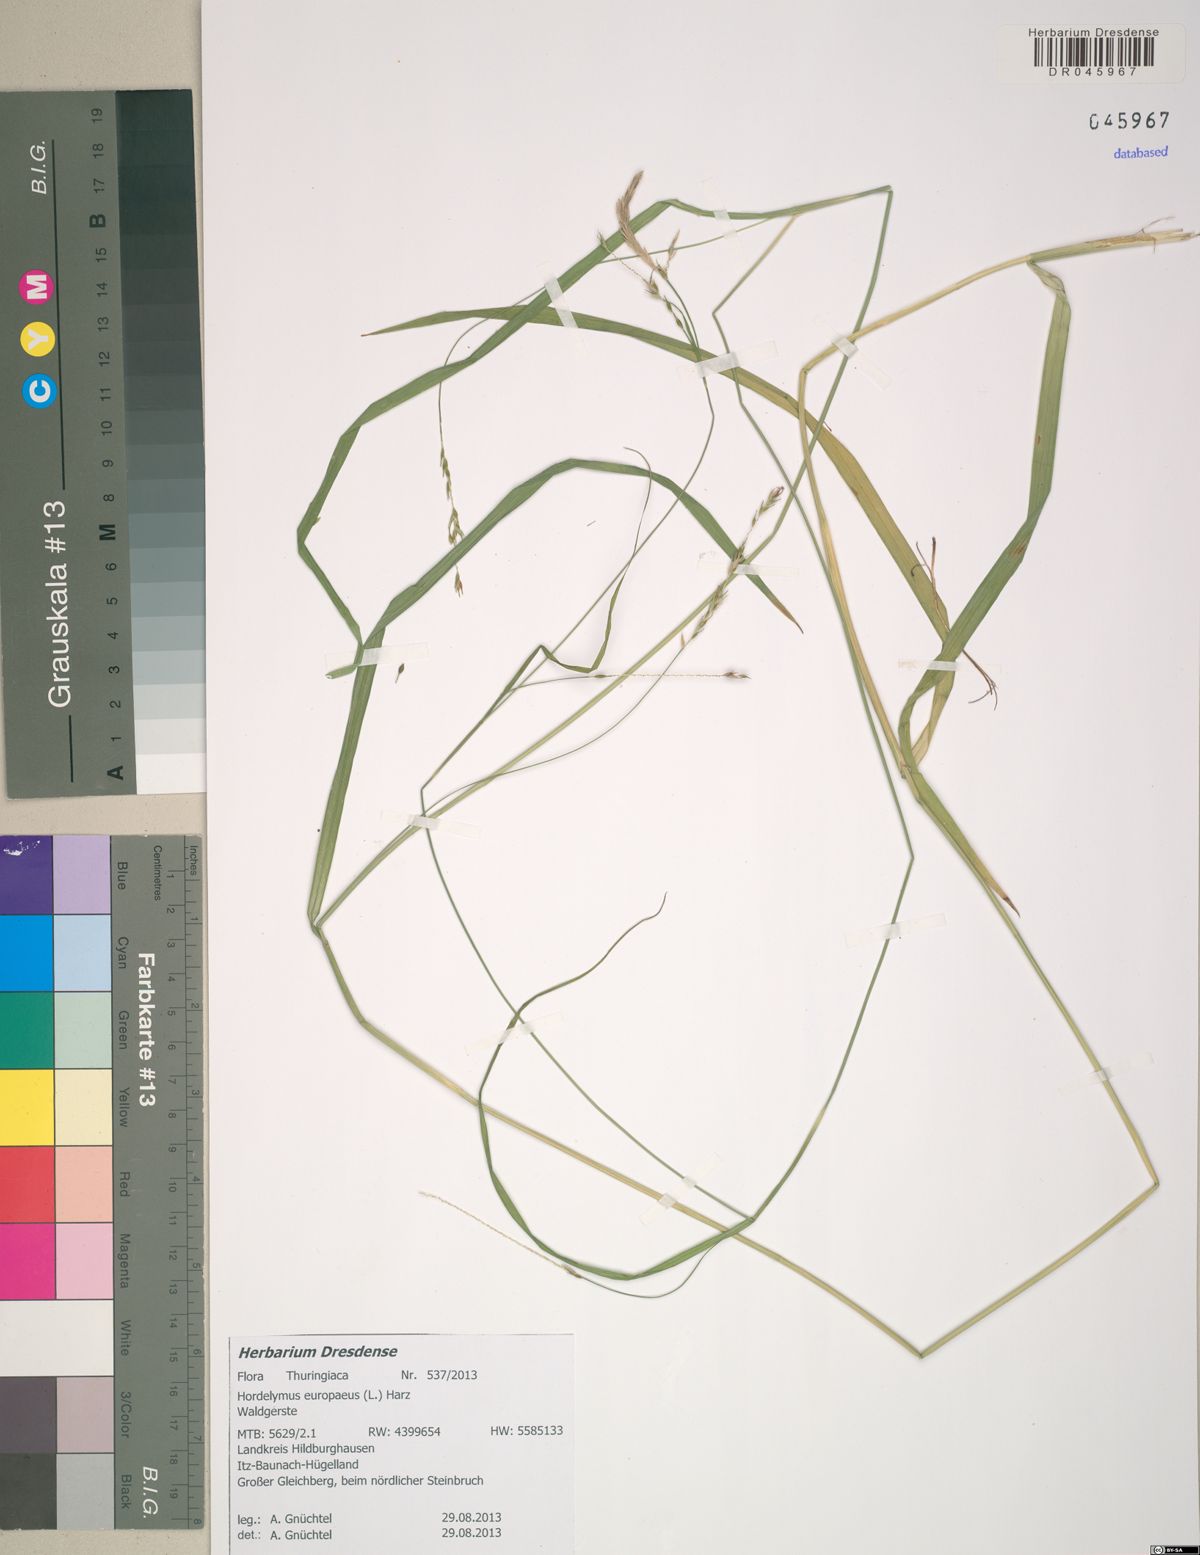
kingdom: Plantae
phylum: Tracheophyta
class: Liliopsida
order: Poales
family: Poaceae
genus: Hordelymus
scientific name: Hordelymus europaeus
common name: Wood-barley
